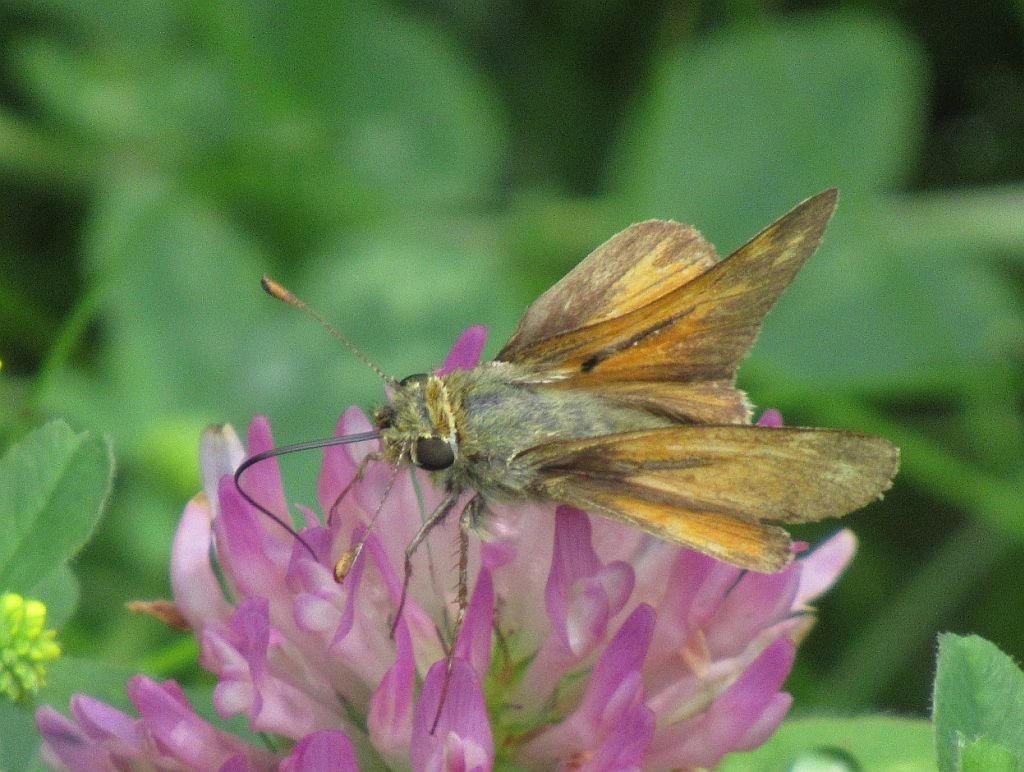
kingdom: Animalia
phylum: Arthropoda
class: Insecta
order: Lepidoptera
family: Hesperiidae
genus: Lon
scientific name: Lon hobomok
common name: Hobomok Skipper
